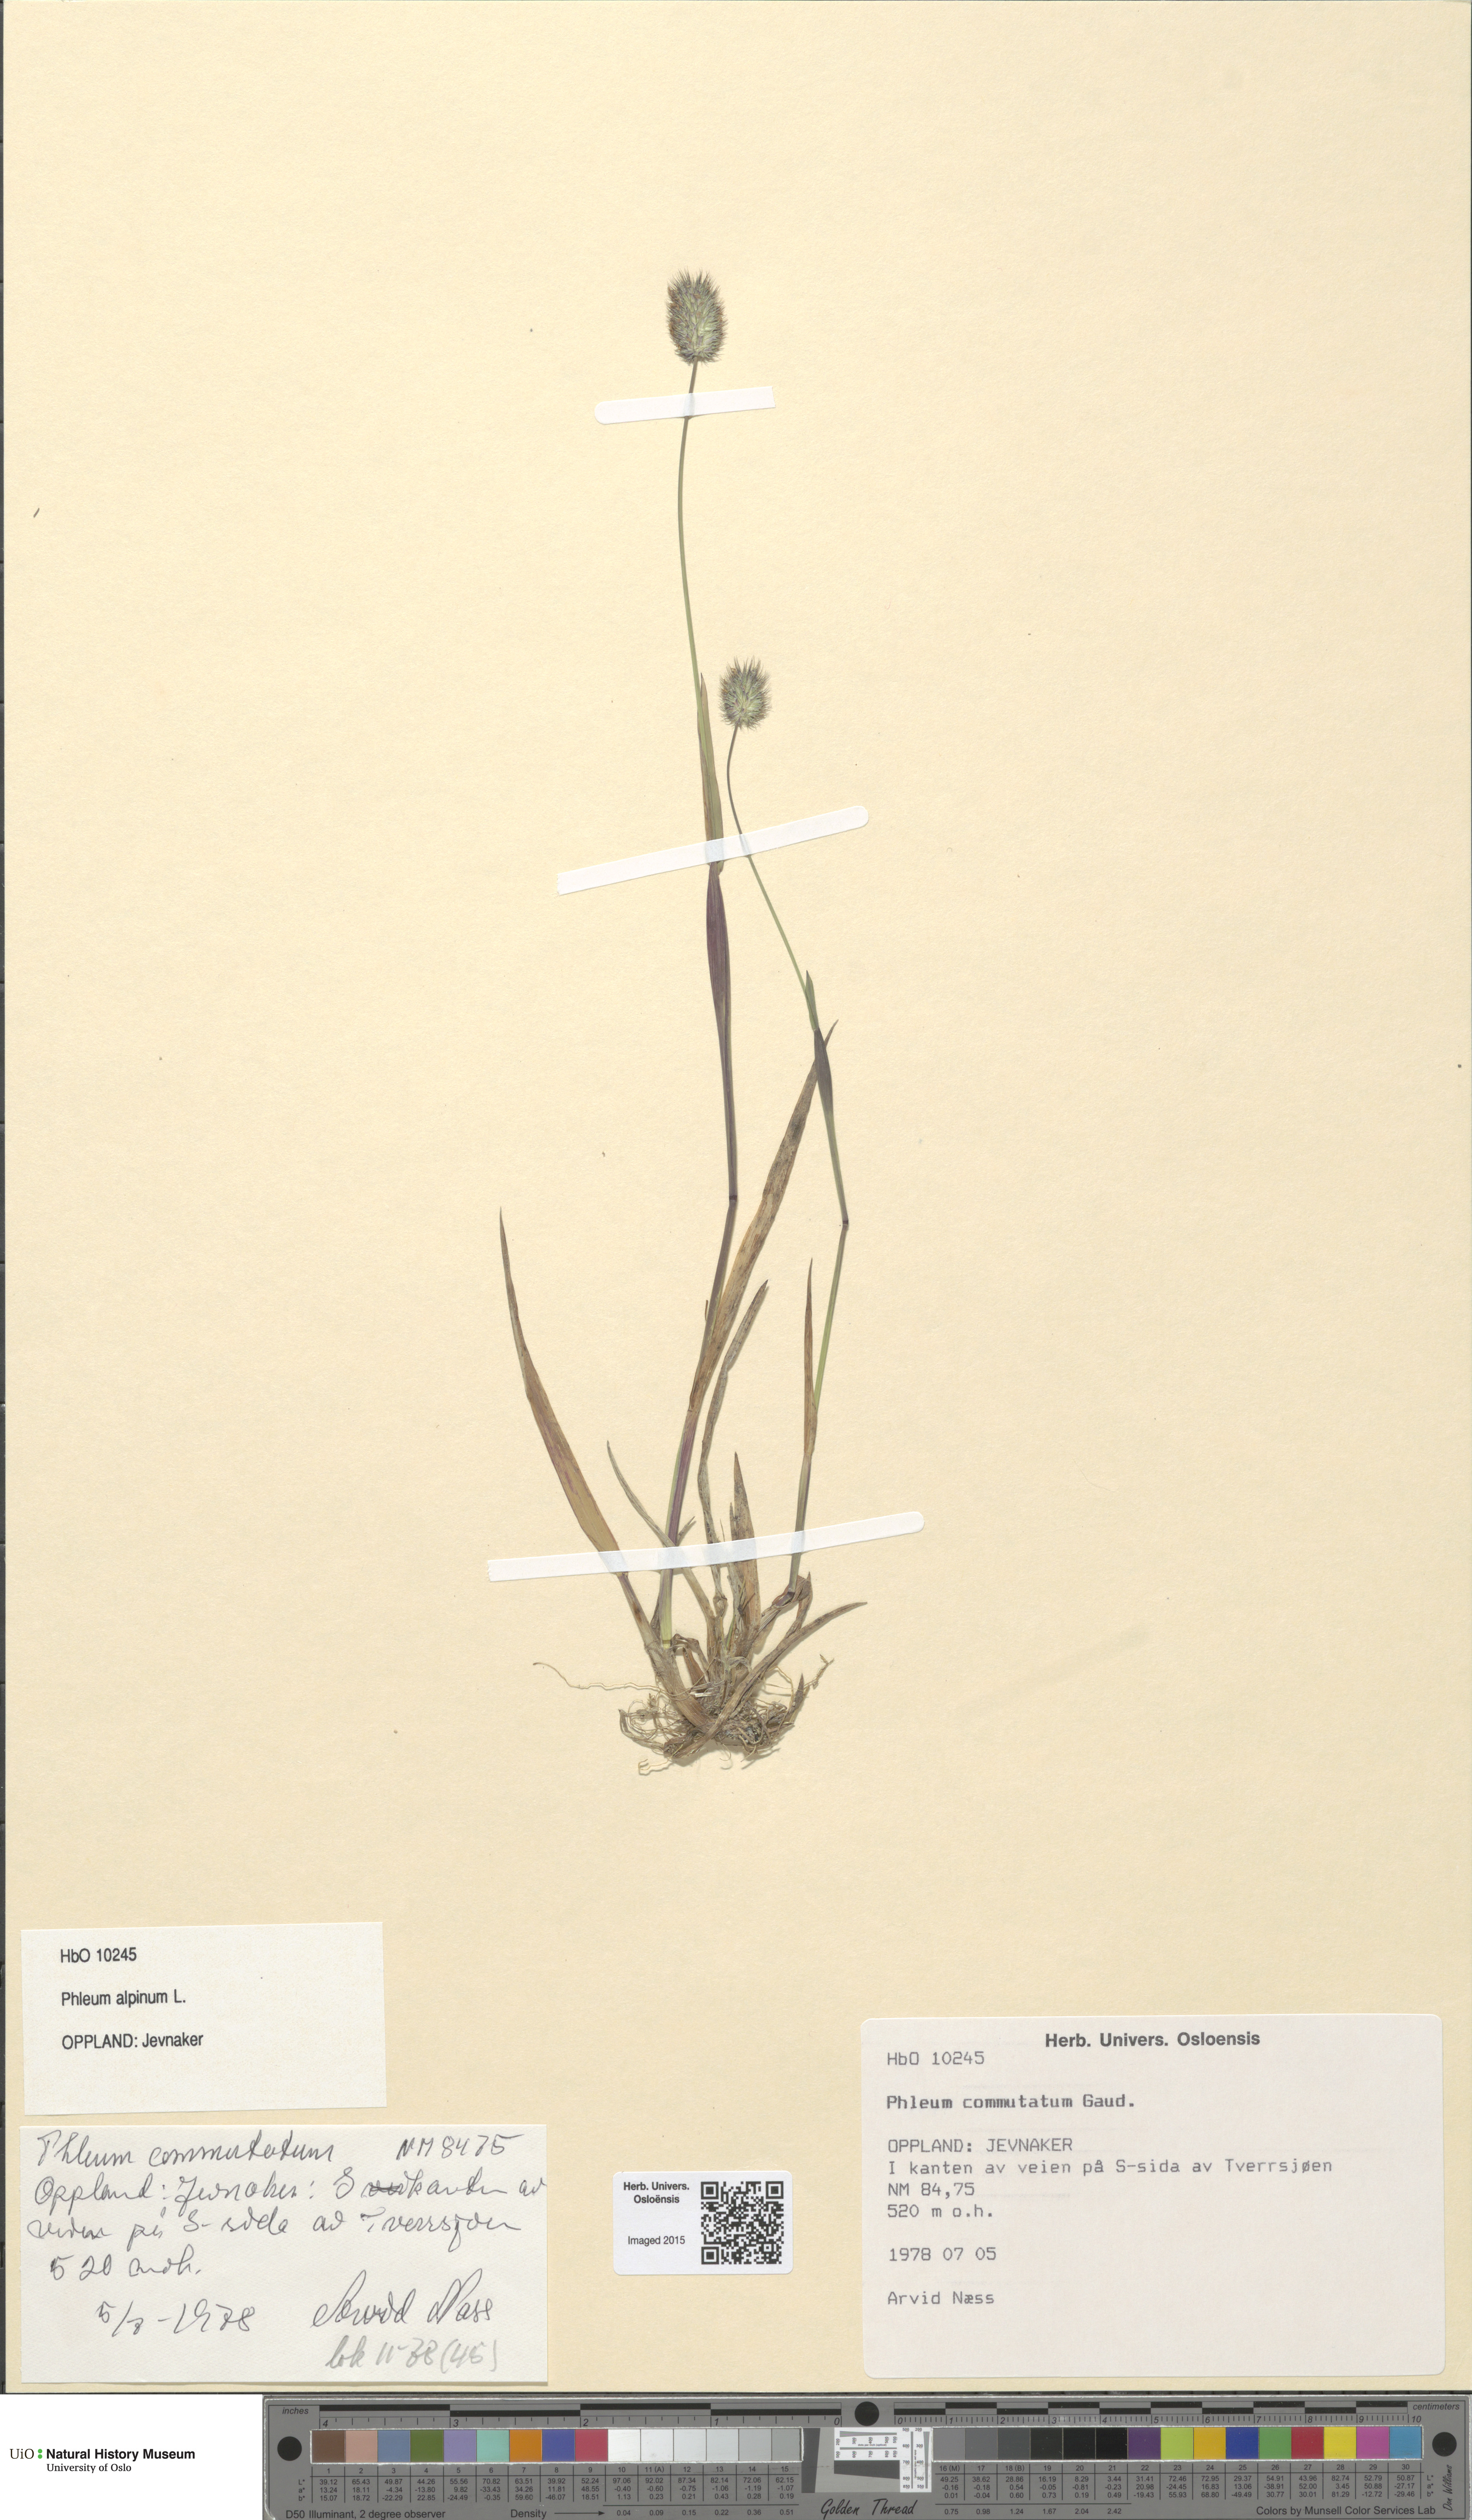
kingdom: Plantae
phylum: Tracheophyta
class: Liliopsida
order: Poales
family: Poaceae
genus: Phleum
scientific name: Phleum alpinum
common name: Alpine cat's-tail
